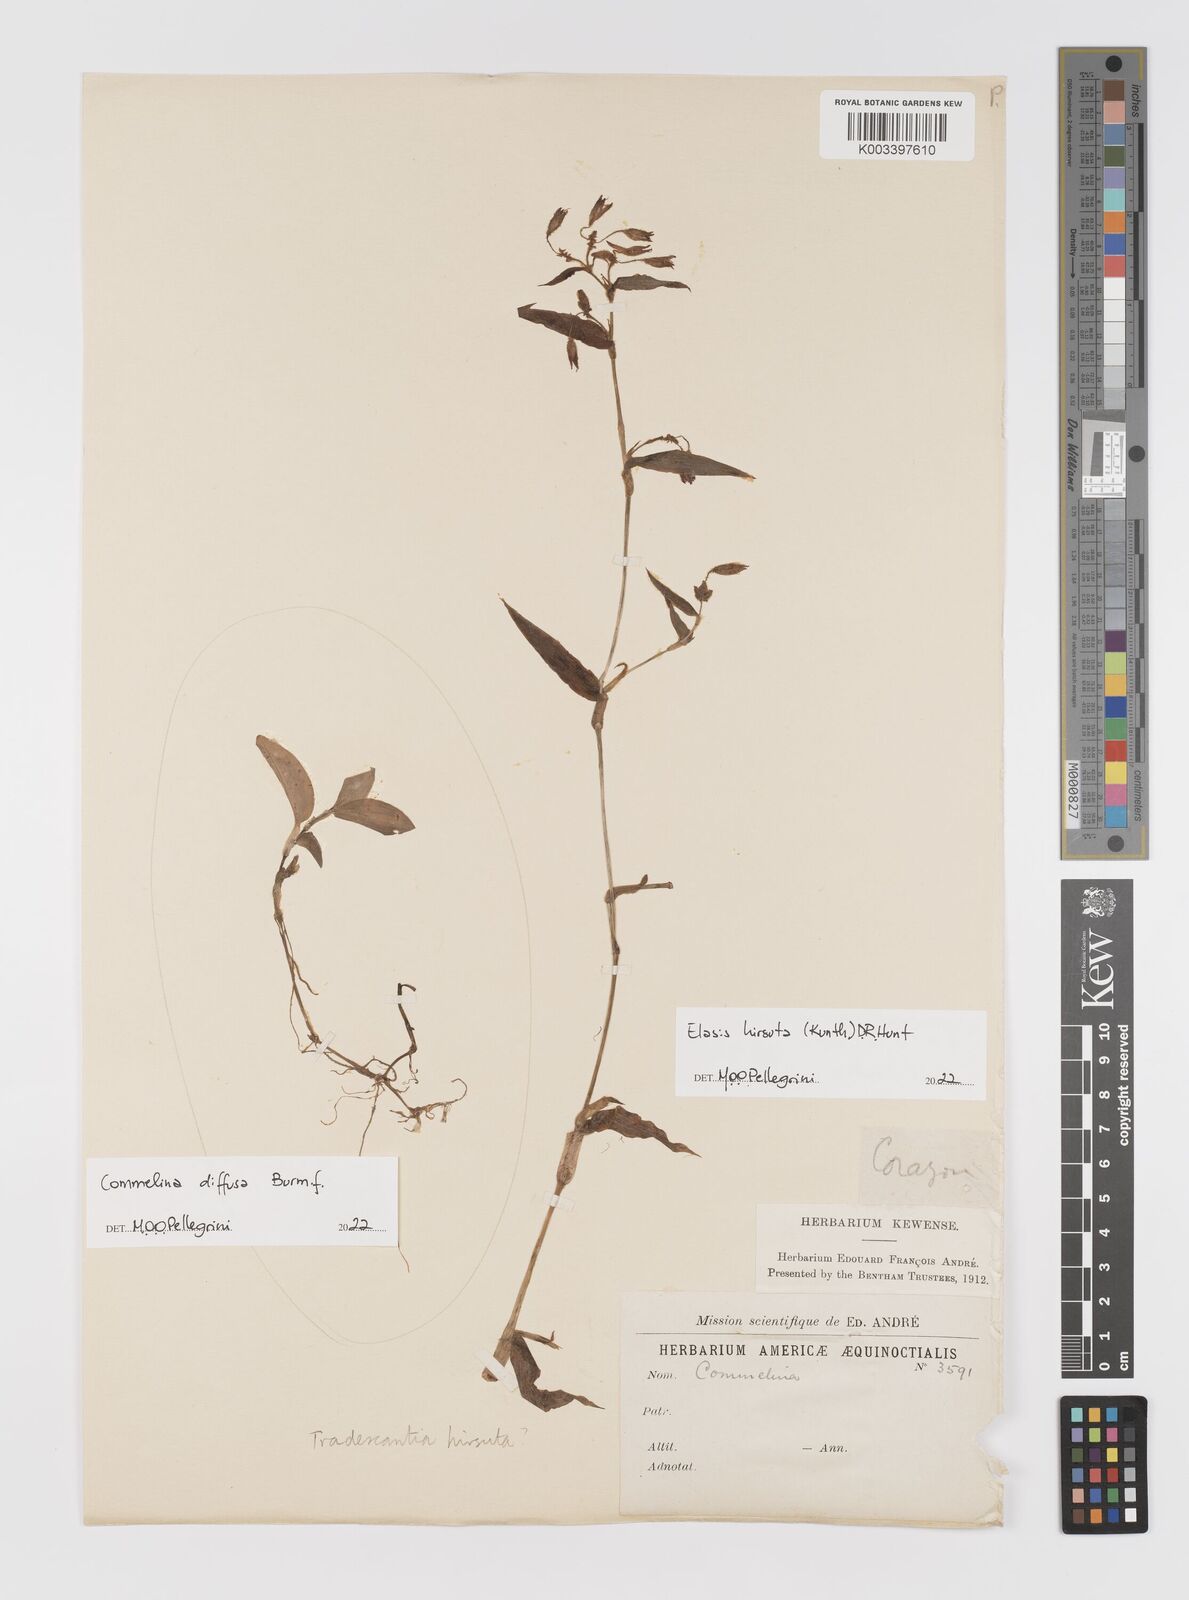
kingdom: Plantae
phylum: Tracheophyta
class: Liliopsida
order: Commelinales
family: Commelinaceae
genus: Elasis
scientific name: Elasis hirsuta
